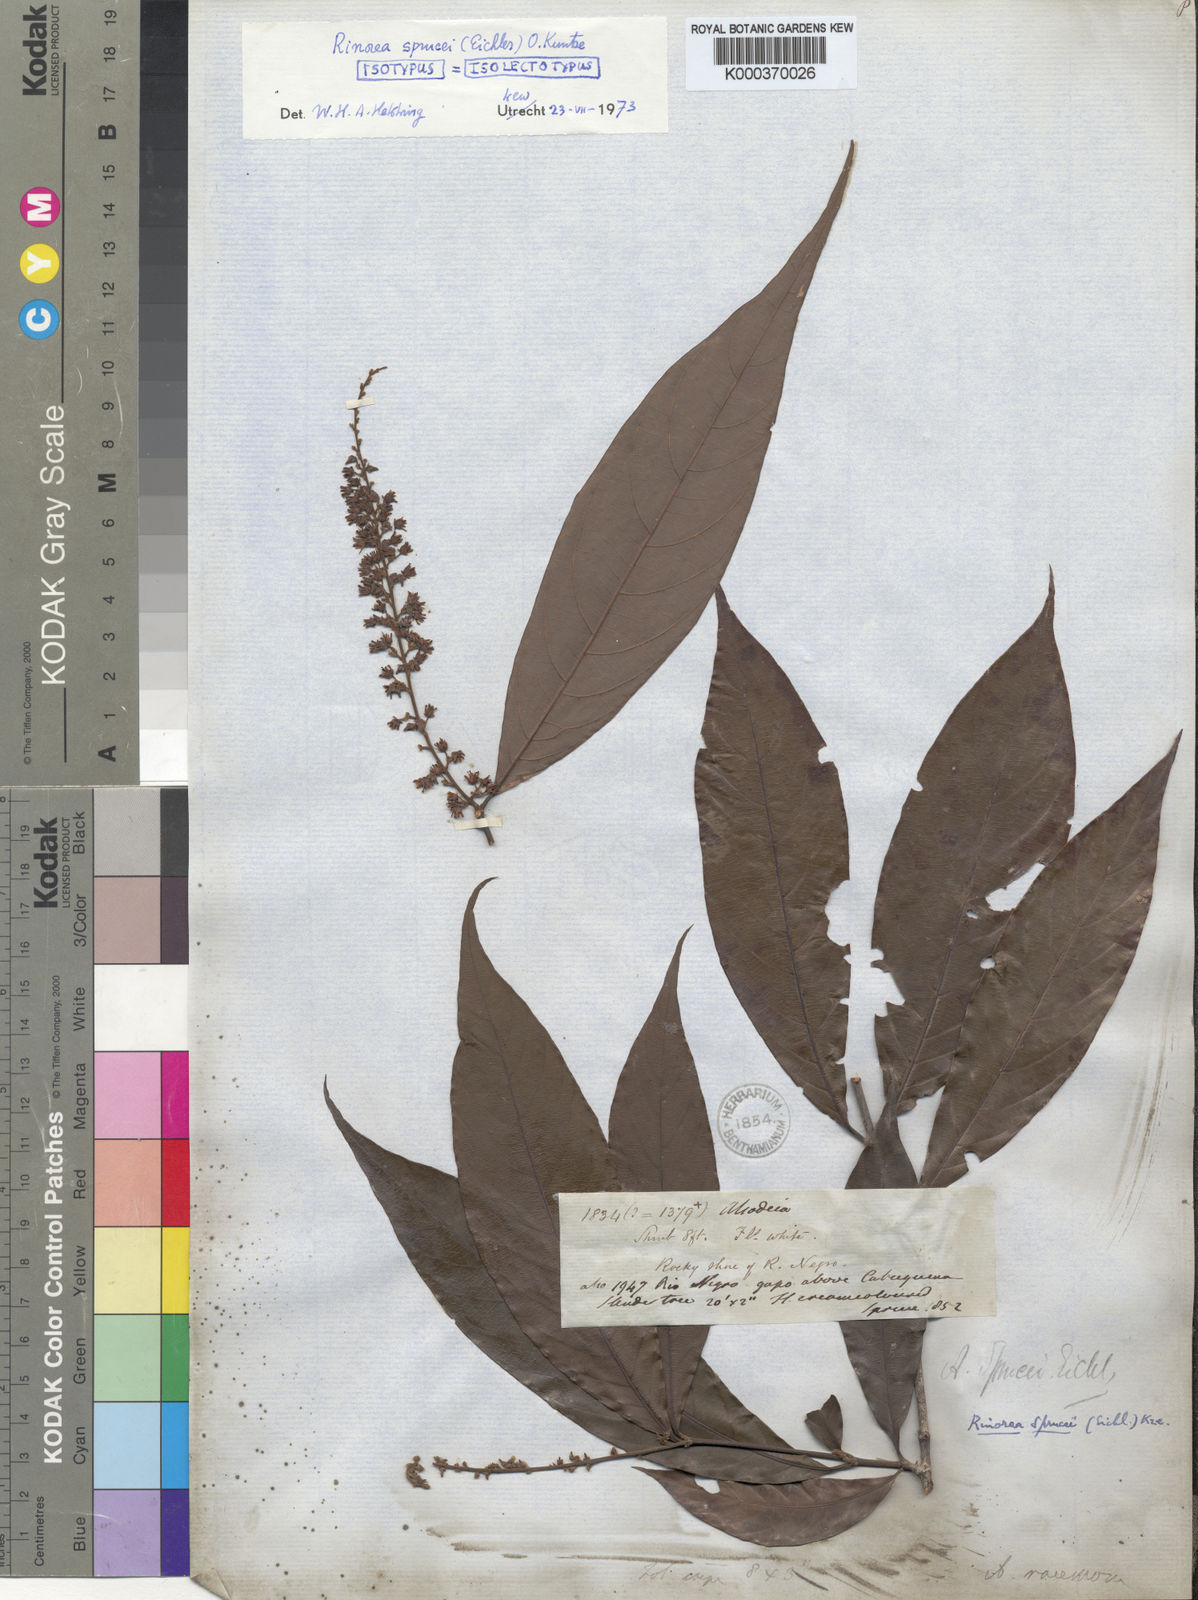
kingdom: Plantae
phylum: Tracheophyta
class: Magnoliopsida
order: Malpighiales
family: Violaceae
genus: Rinorea
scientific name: Rinorea sprucei
